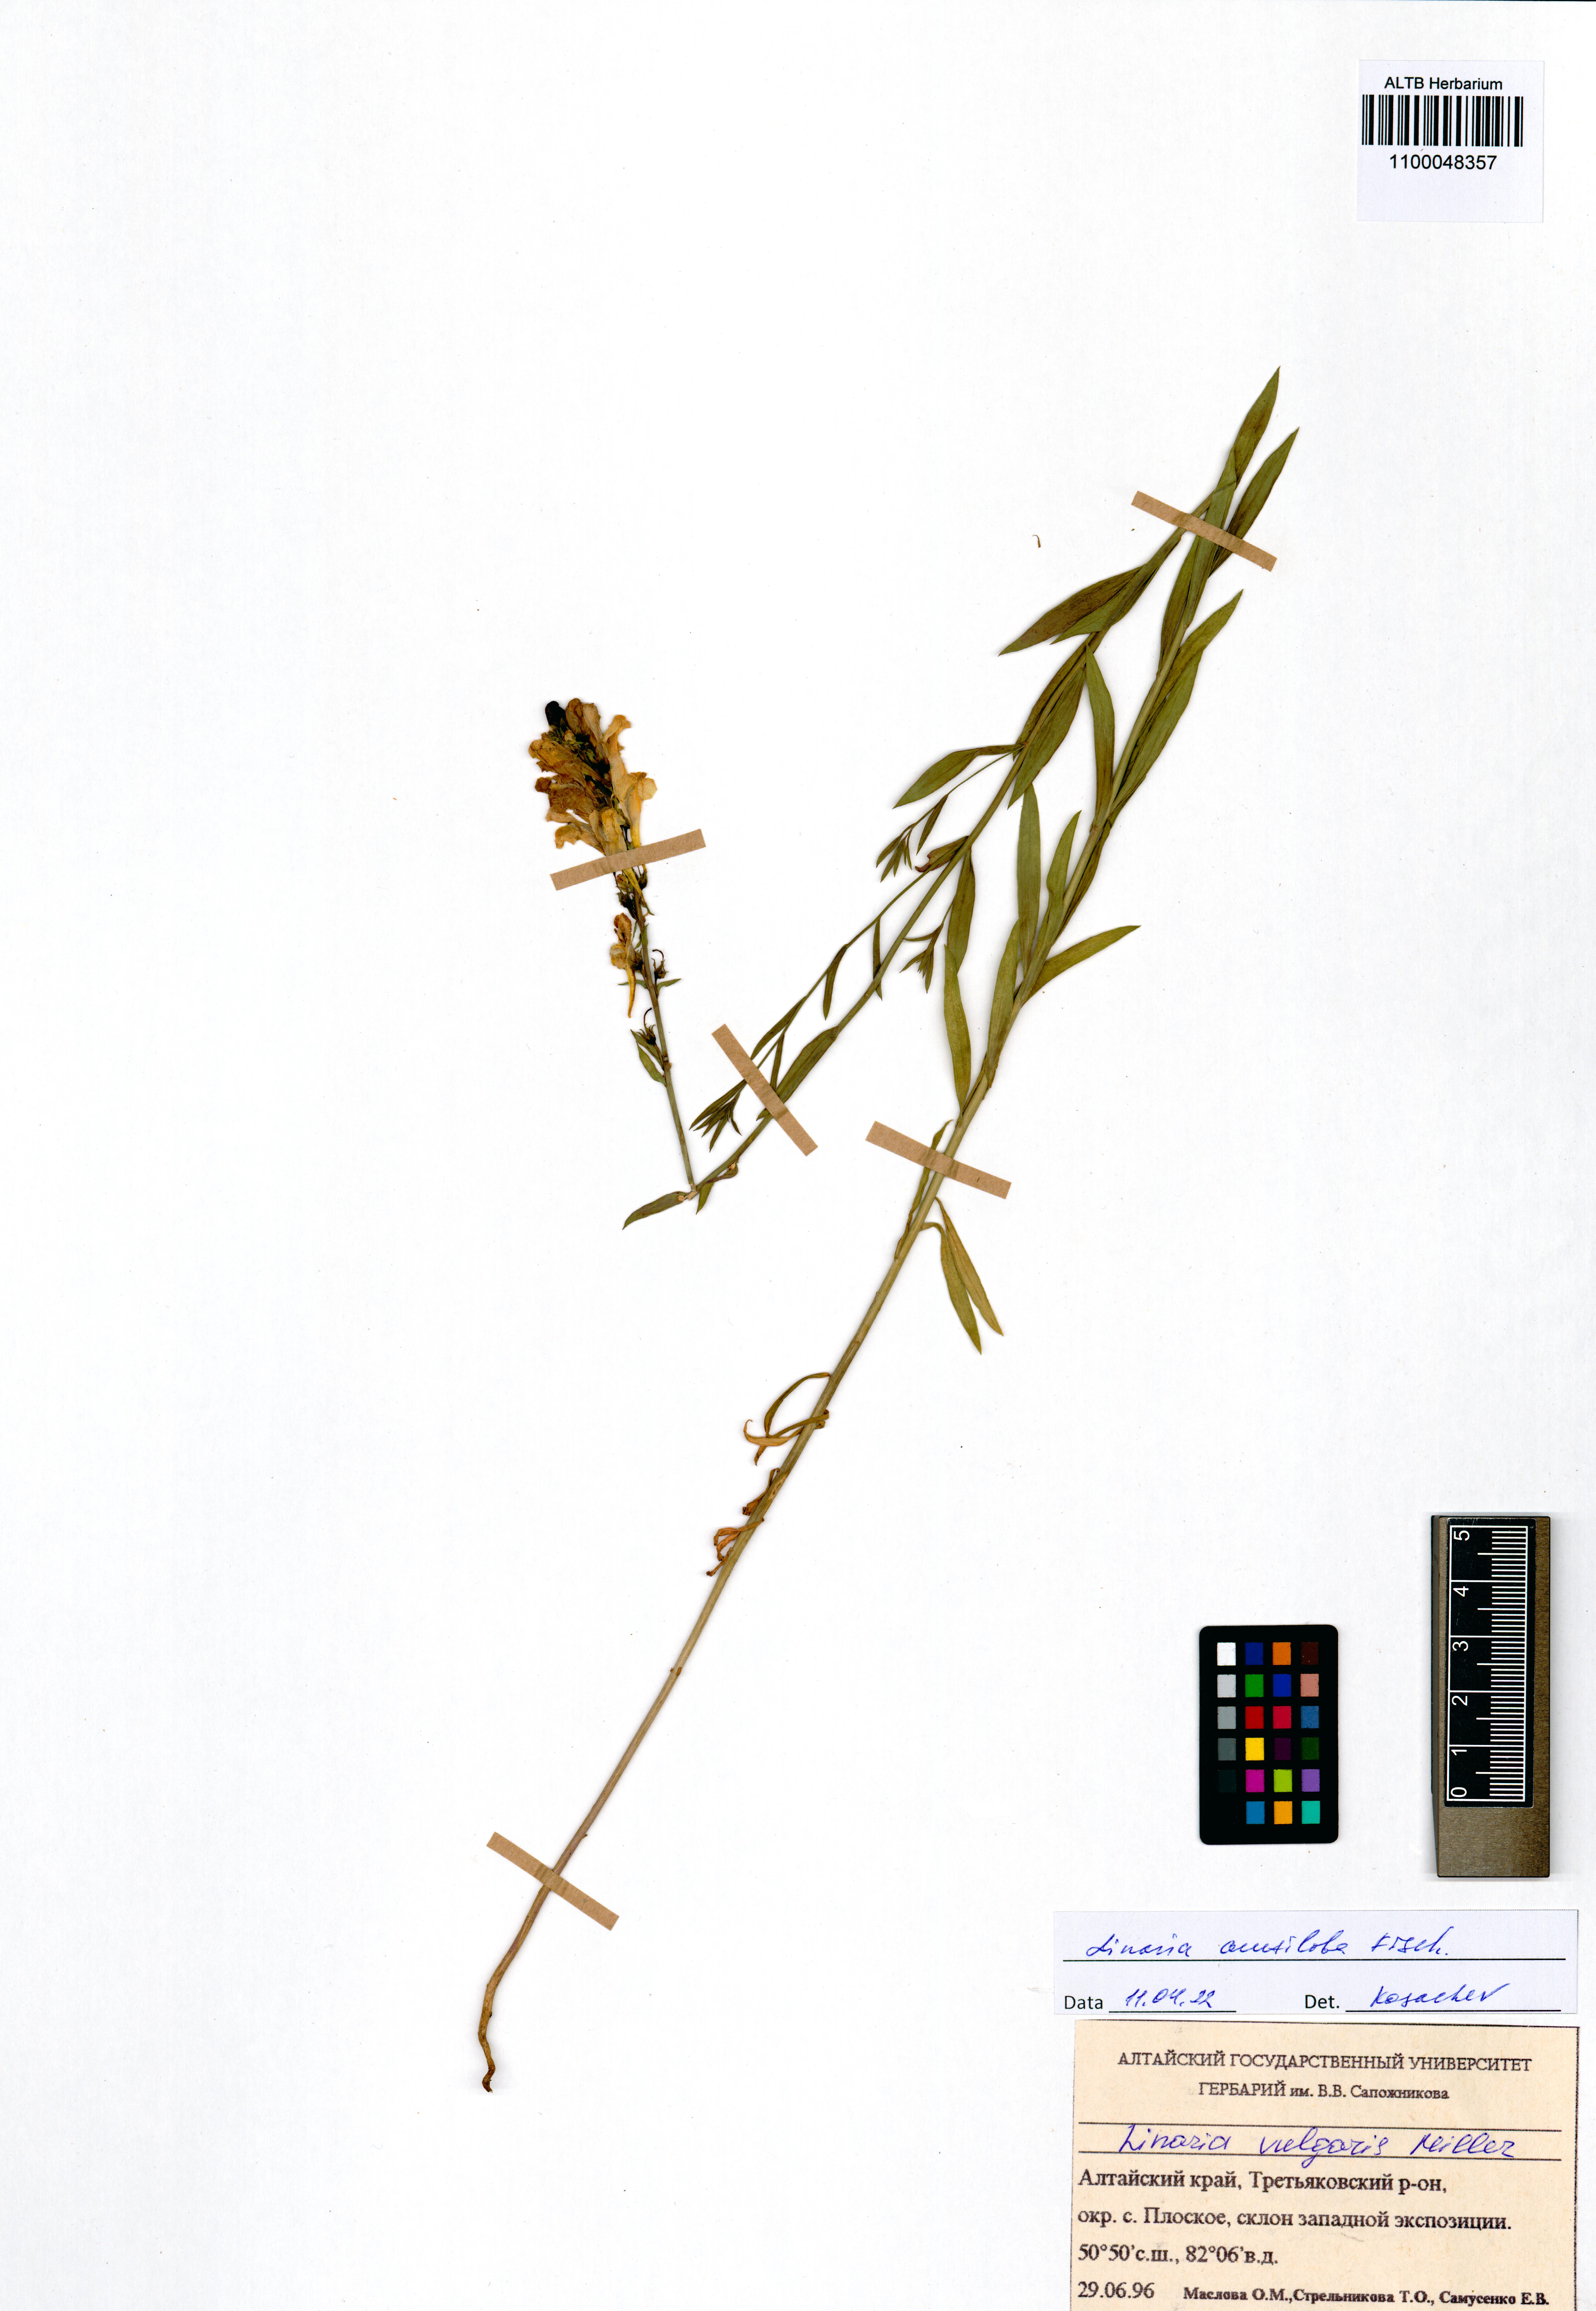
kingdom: Plantae
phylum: Tracheophyta
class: Magnoliopsida
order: Lamiales
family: Plantaginaceae
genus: Linaria
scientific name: Linaria acutiloba
